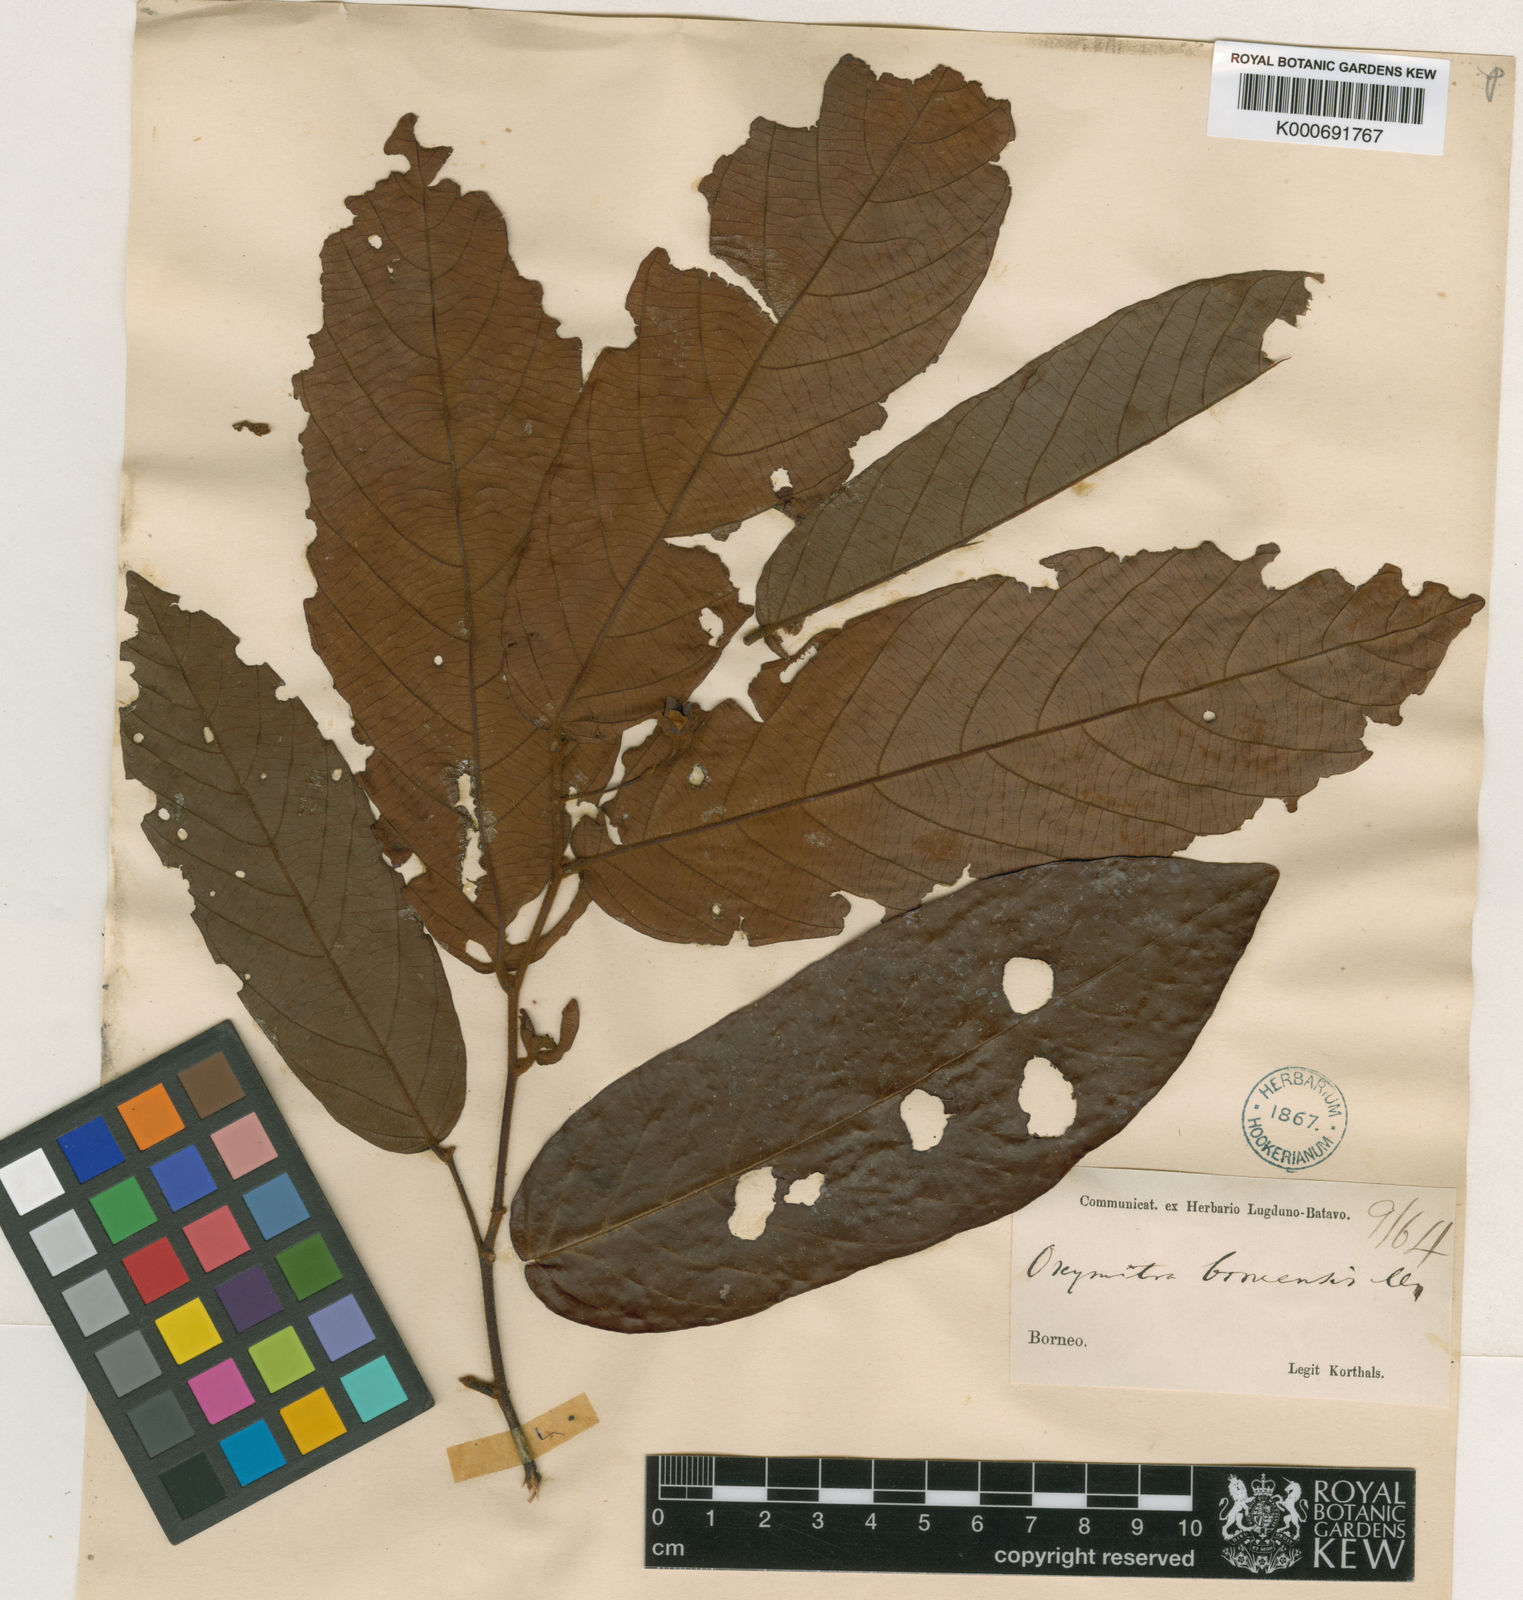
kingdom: Plantae
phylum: Tracheophyta
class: Magnoliopsida
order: Magnoliales
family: Annonaceae
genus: Friesodielsia
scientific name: Friesodielsia borneensis
